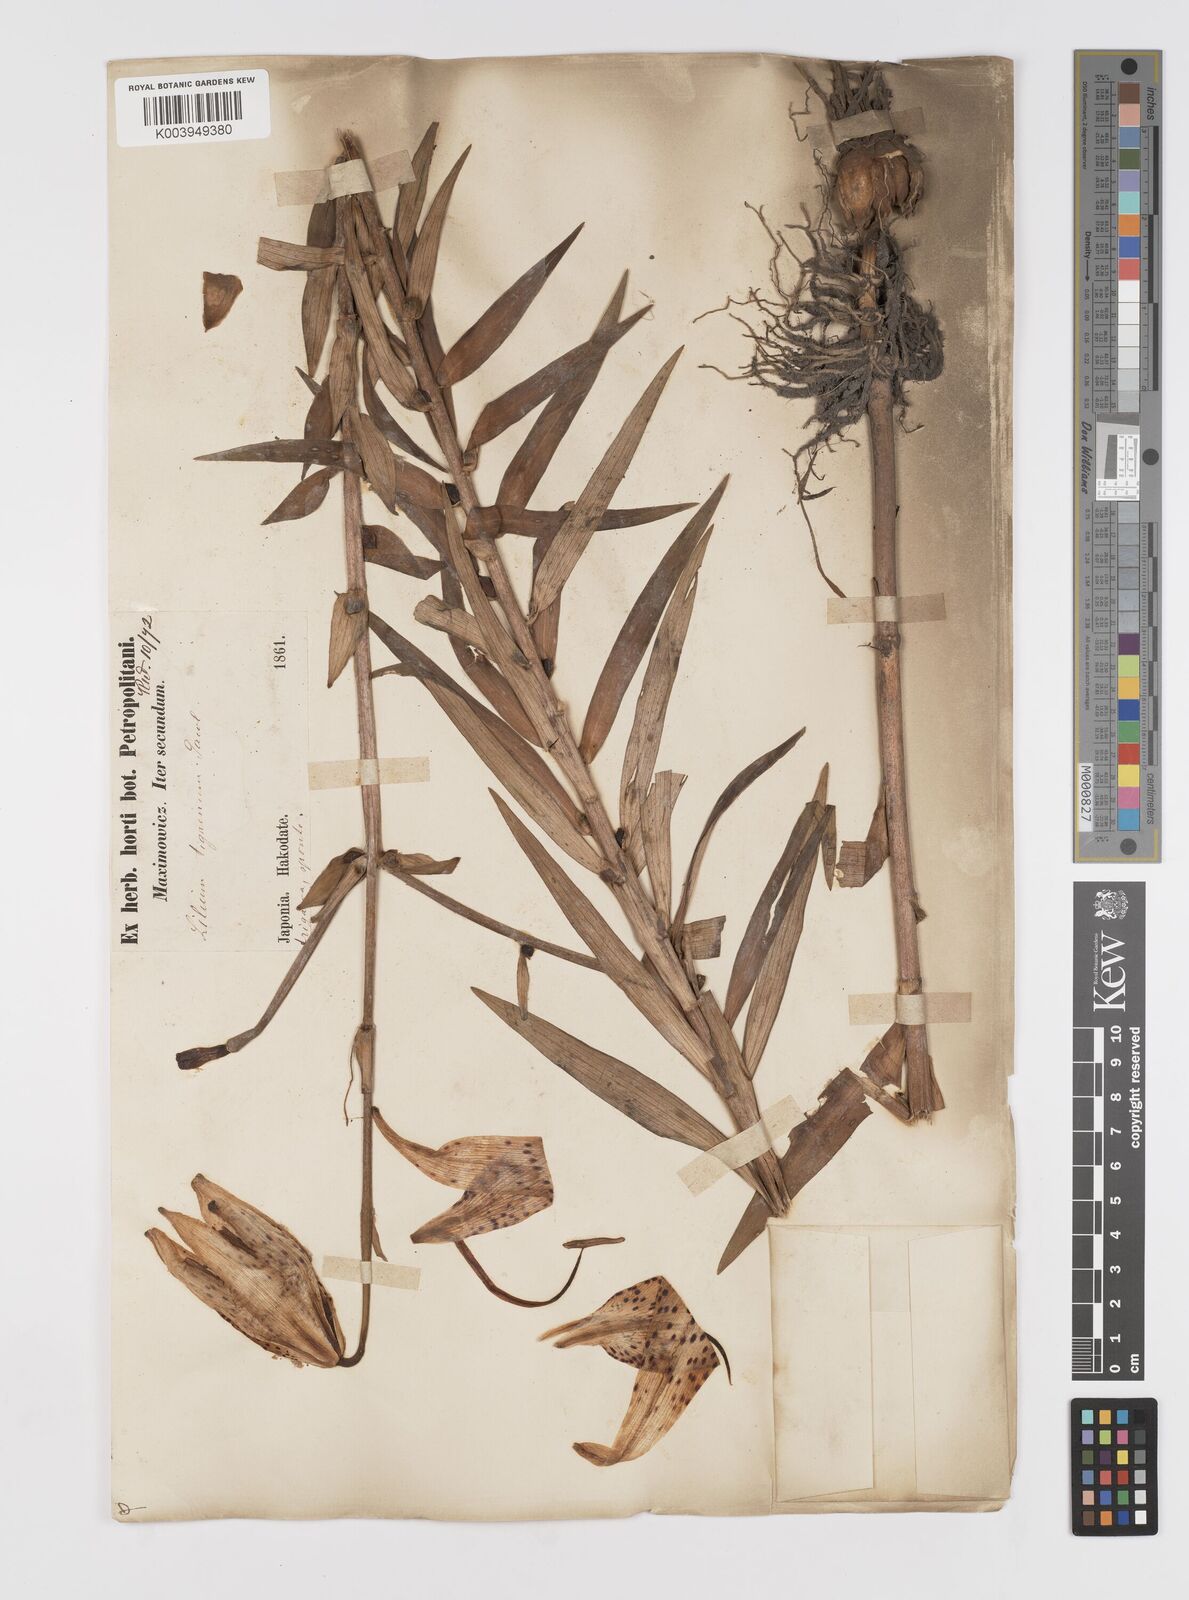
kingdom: Plantae
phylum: Tracheophyta
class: Liliopsida
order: Liliales
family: Liliaceae
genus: Lilium
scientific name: Lilium lancifolium
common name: Tiger lily
